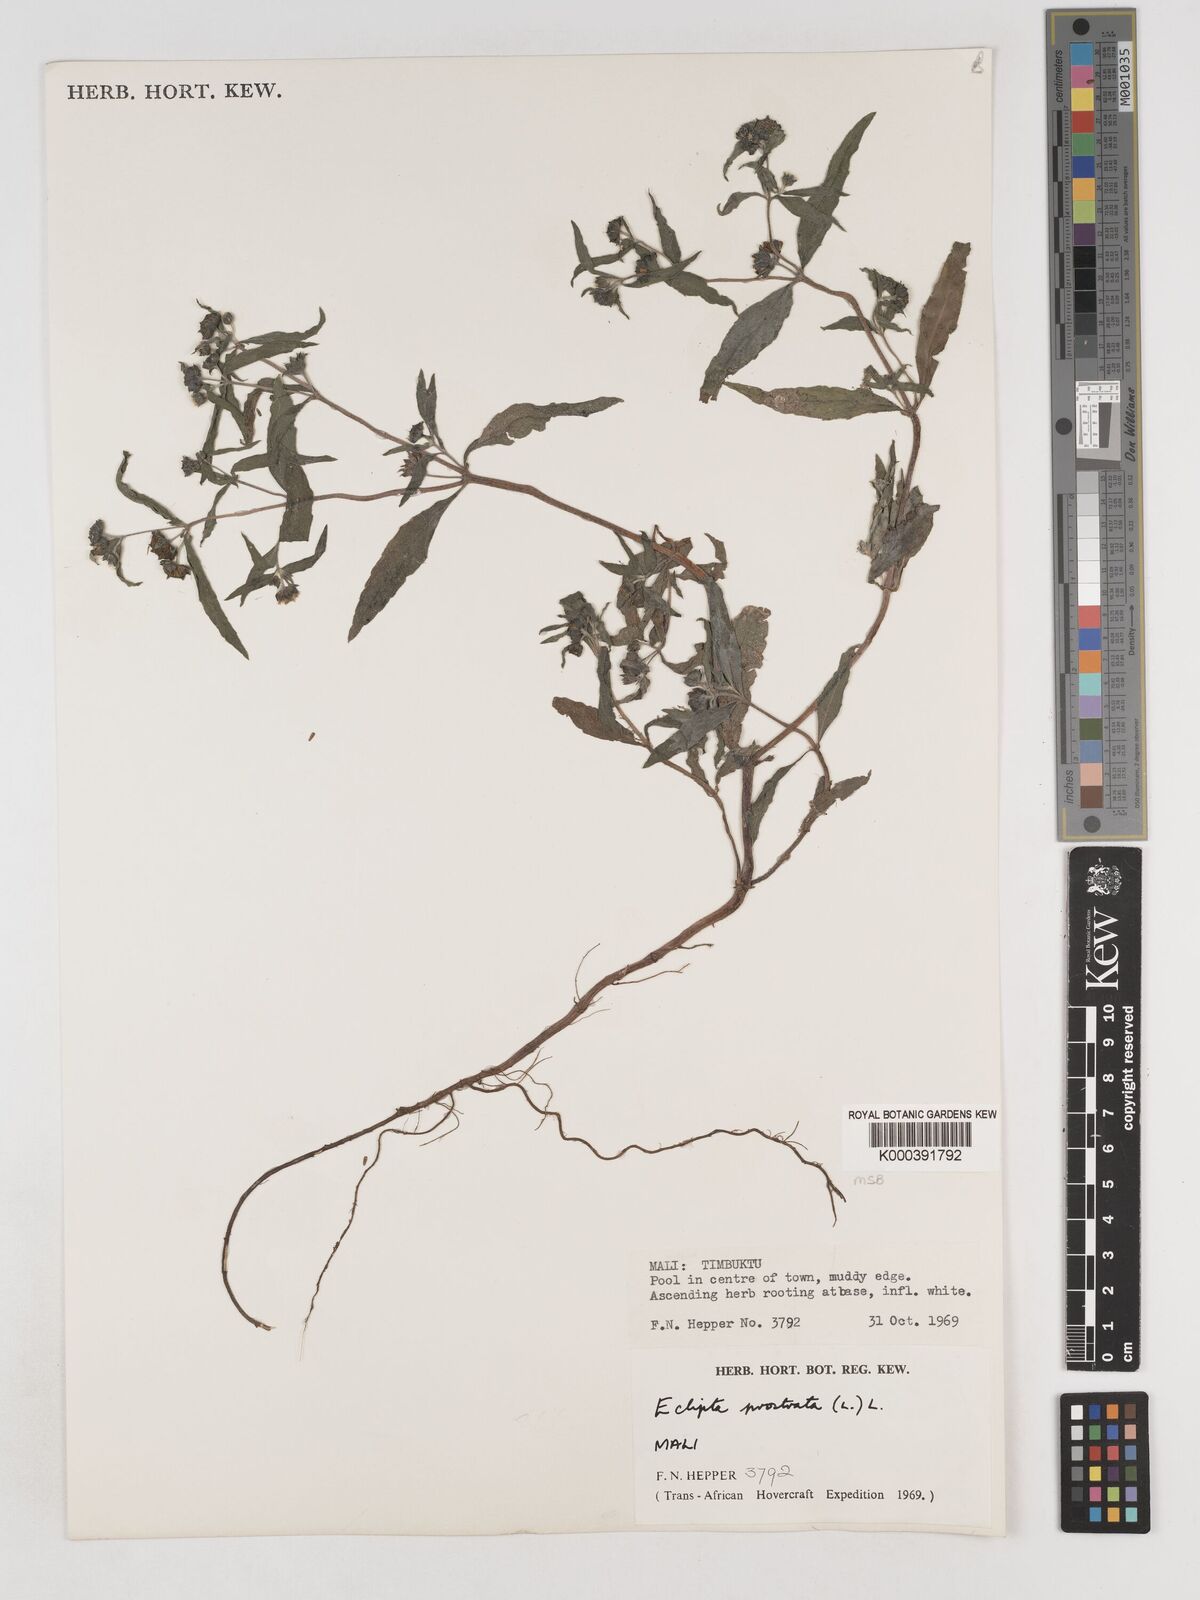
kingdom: Plantae
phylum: Tracheophyta
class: Magnoliopsida
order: Asterales
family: Asteraceae
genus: Eclipta
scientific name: Eclipta prostrata
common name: False daisy
